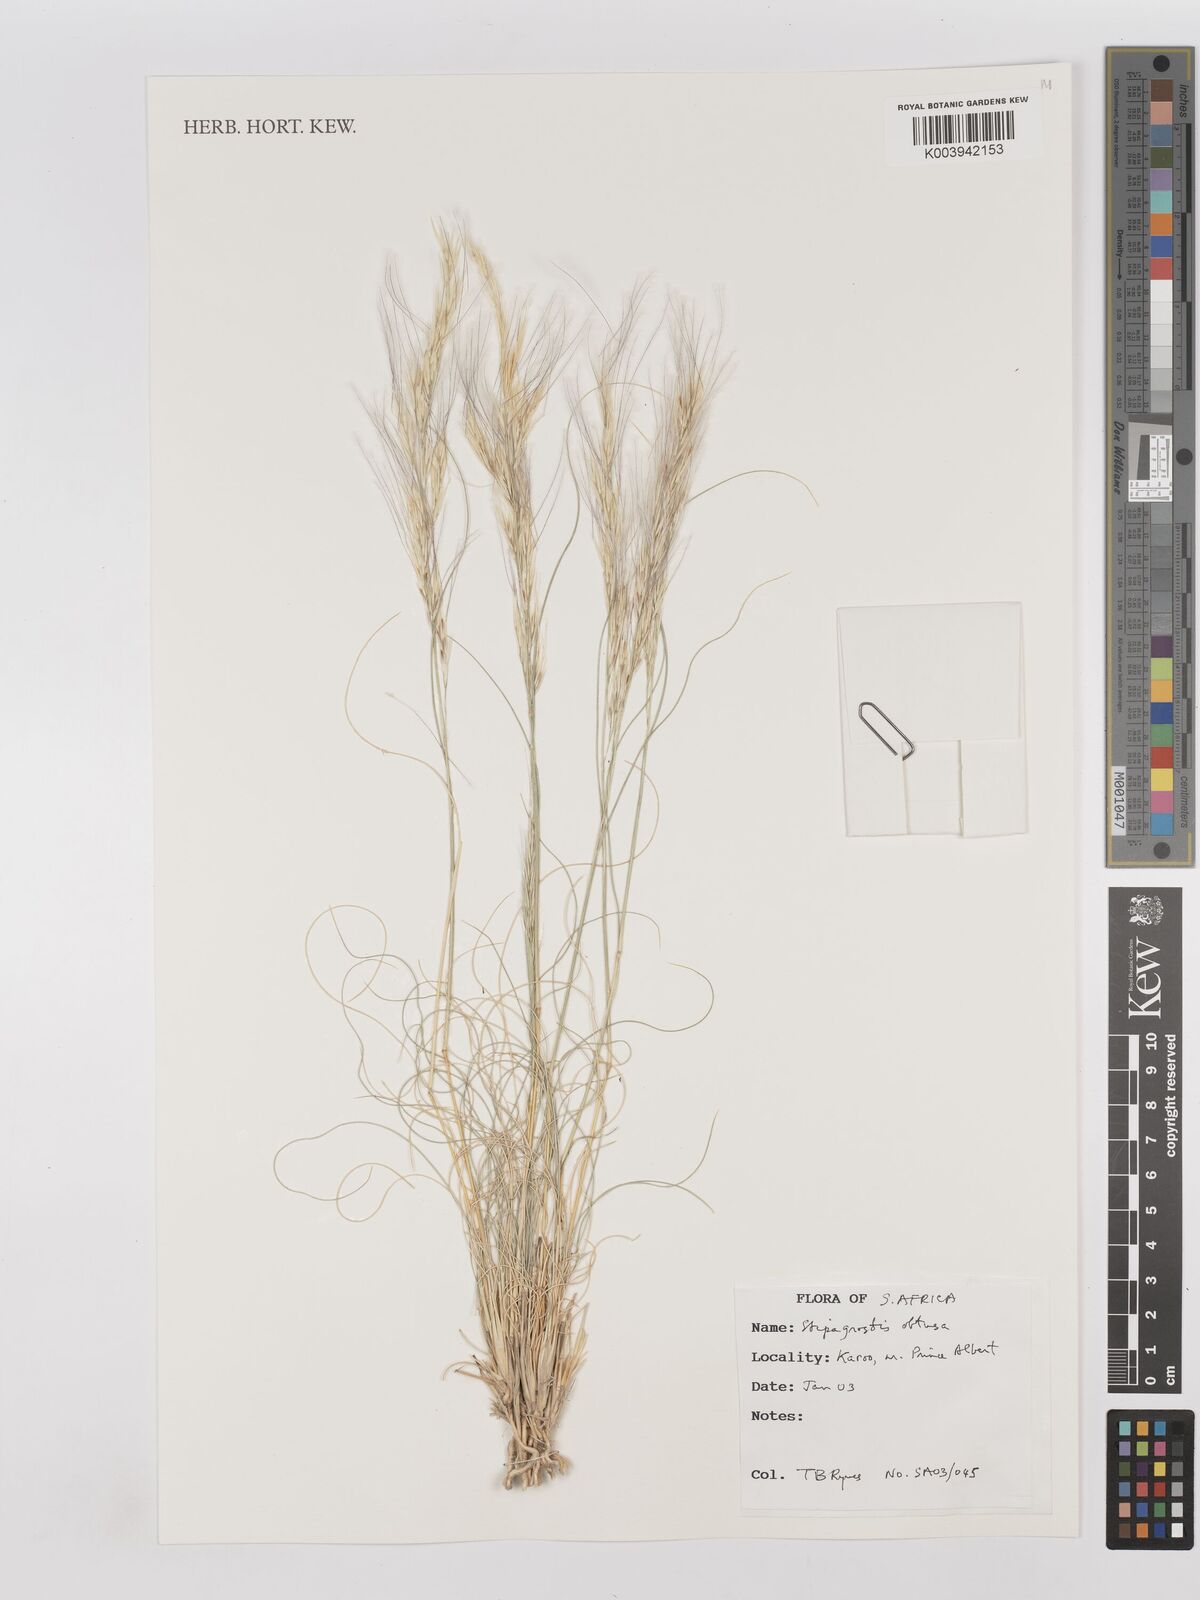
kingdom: Plantae
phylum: Tracheophyta
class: Liliopsida
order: Poales
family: Poaceae
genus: Stipagrostis
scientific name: Stipagrostis obtusa
